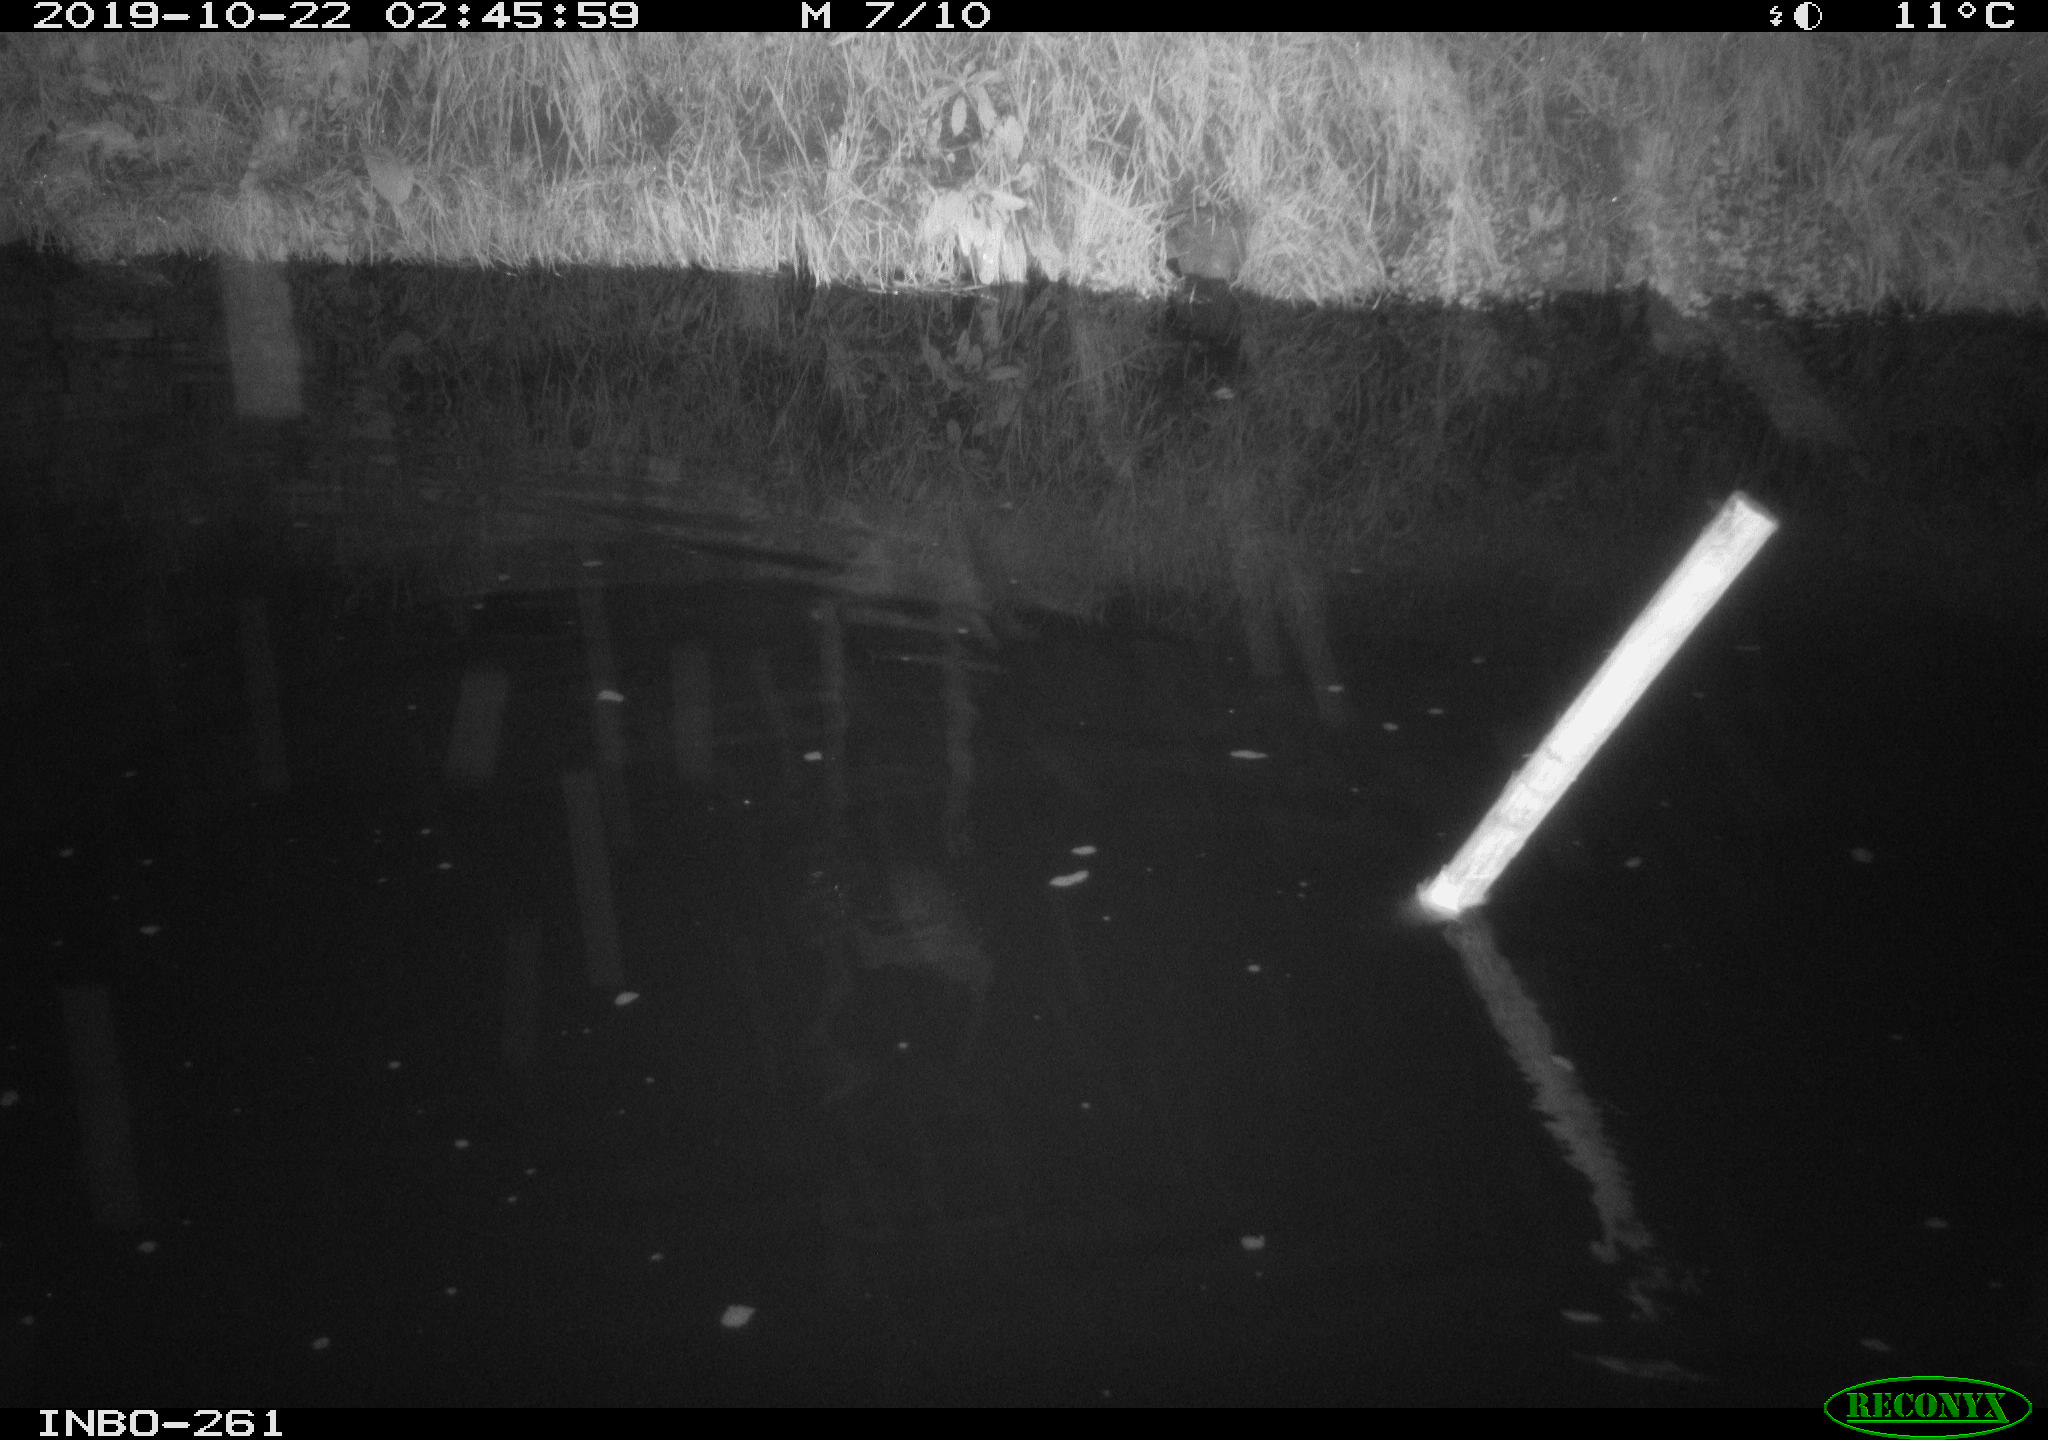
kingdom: Animalia
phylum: Chordata
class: Mammalia
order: Rodentia
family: Muridae
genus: Rattus
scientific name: Rattus norvegicus
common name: Brown rat
